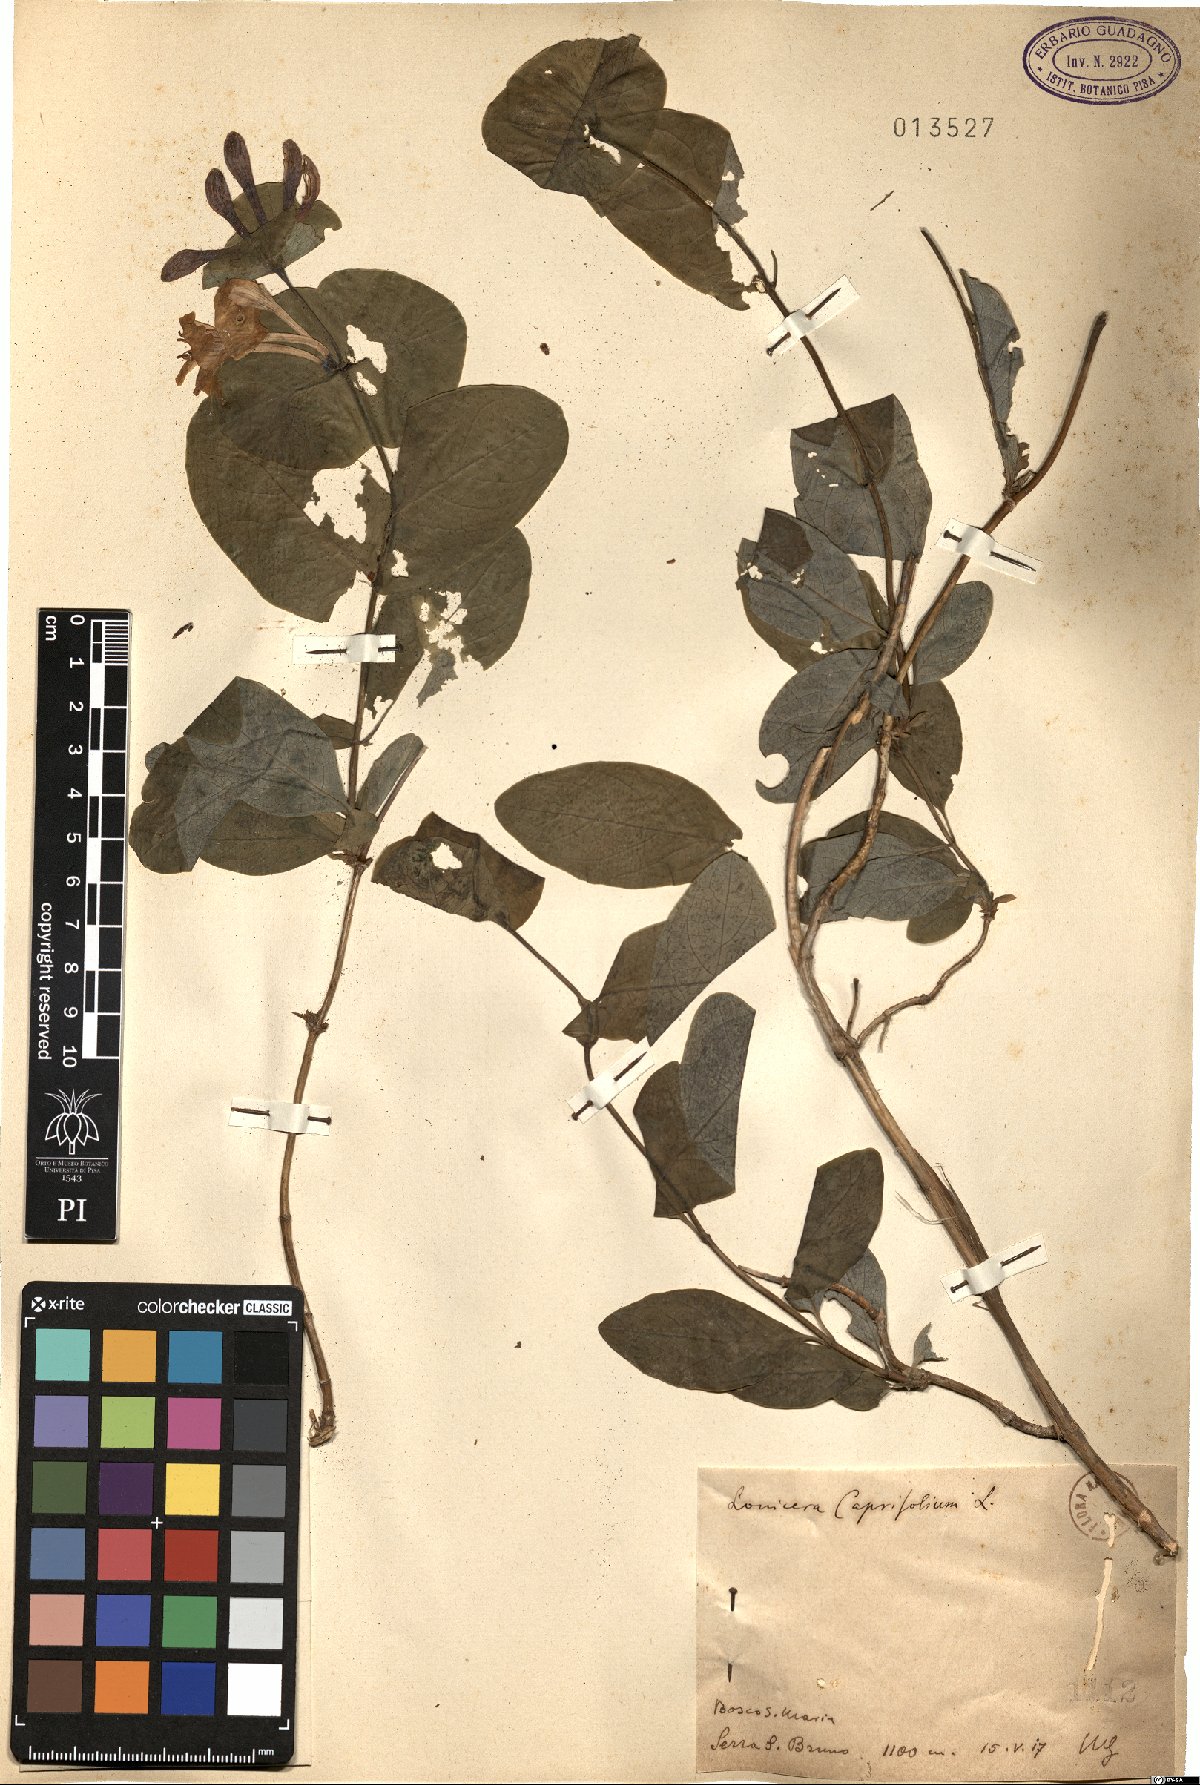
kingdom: Plantae
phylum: Tracheophyta
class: Magnoliopsida
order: Dipsacales
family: Caprifoliaceae
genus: Lonicera
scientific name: Lonicera caprifolium
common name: Perfoliate honeysuckle
